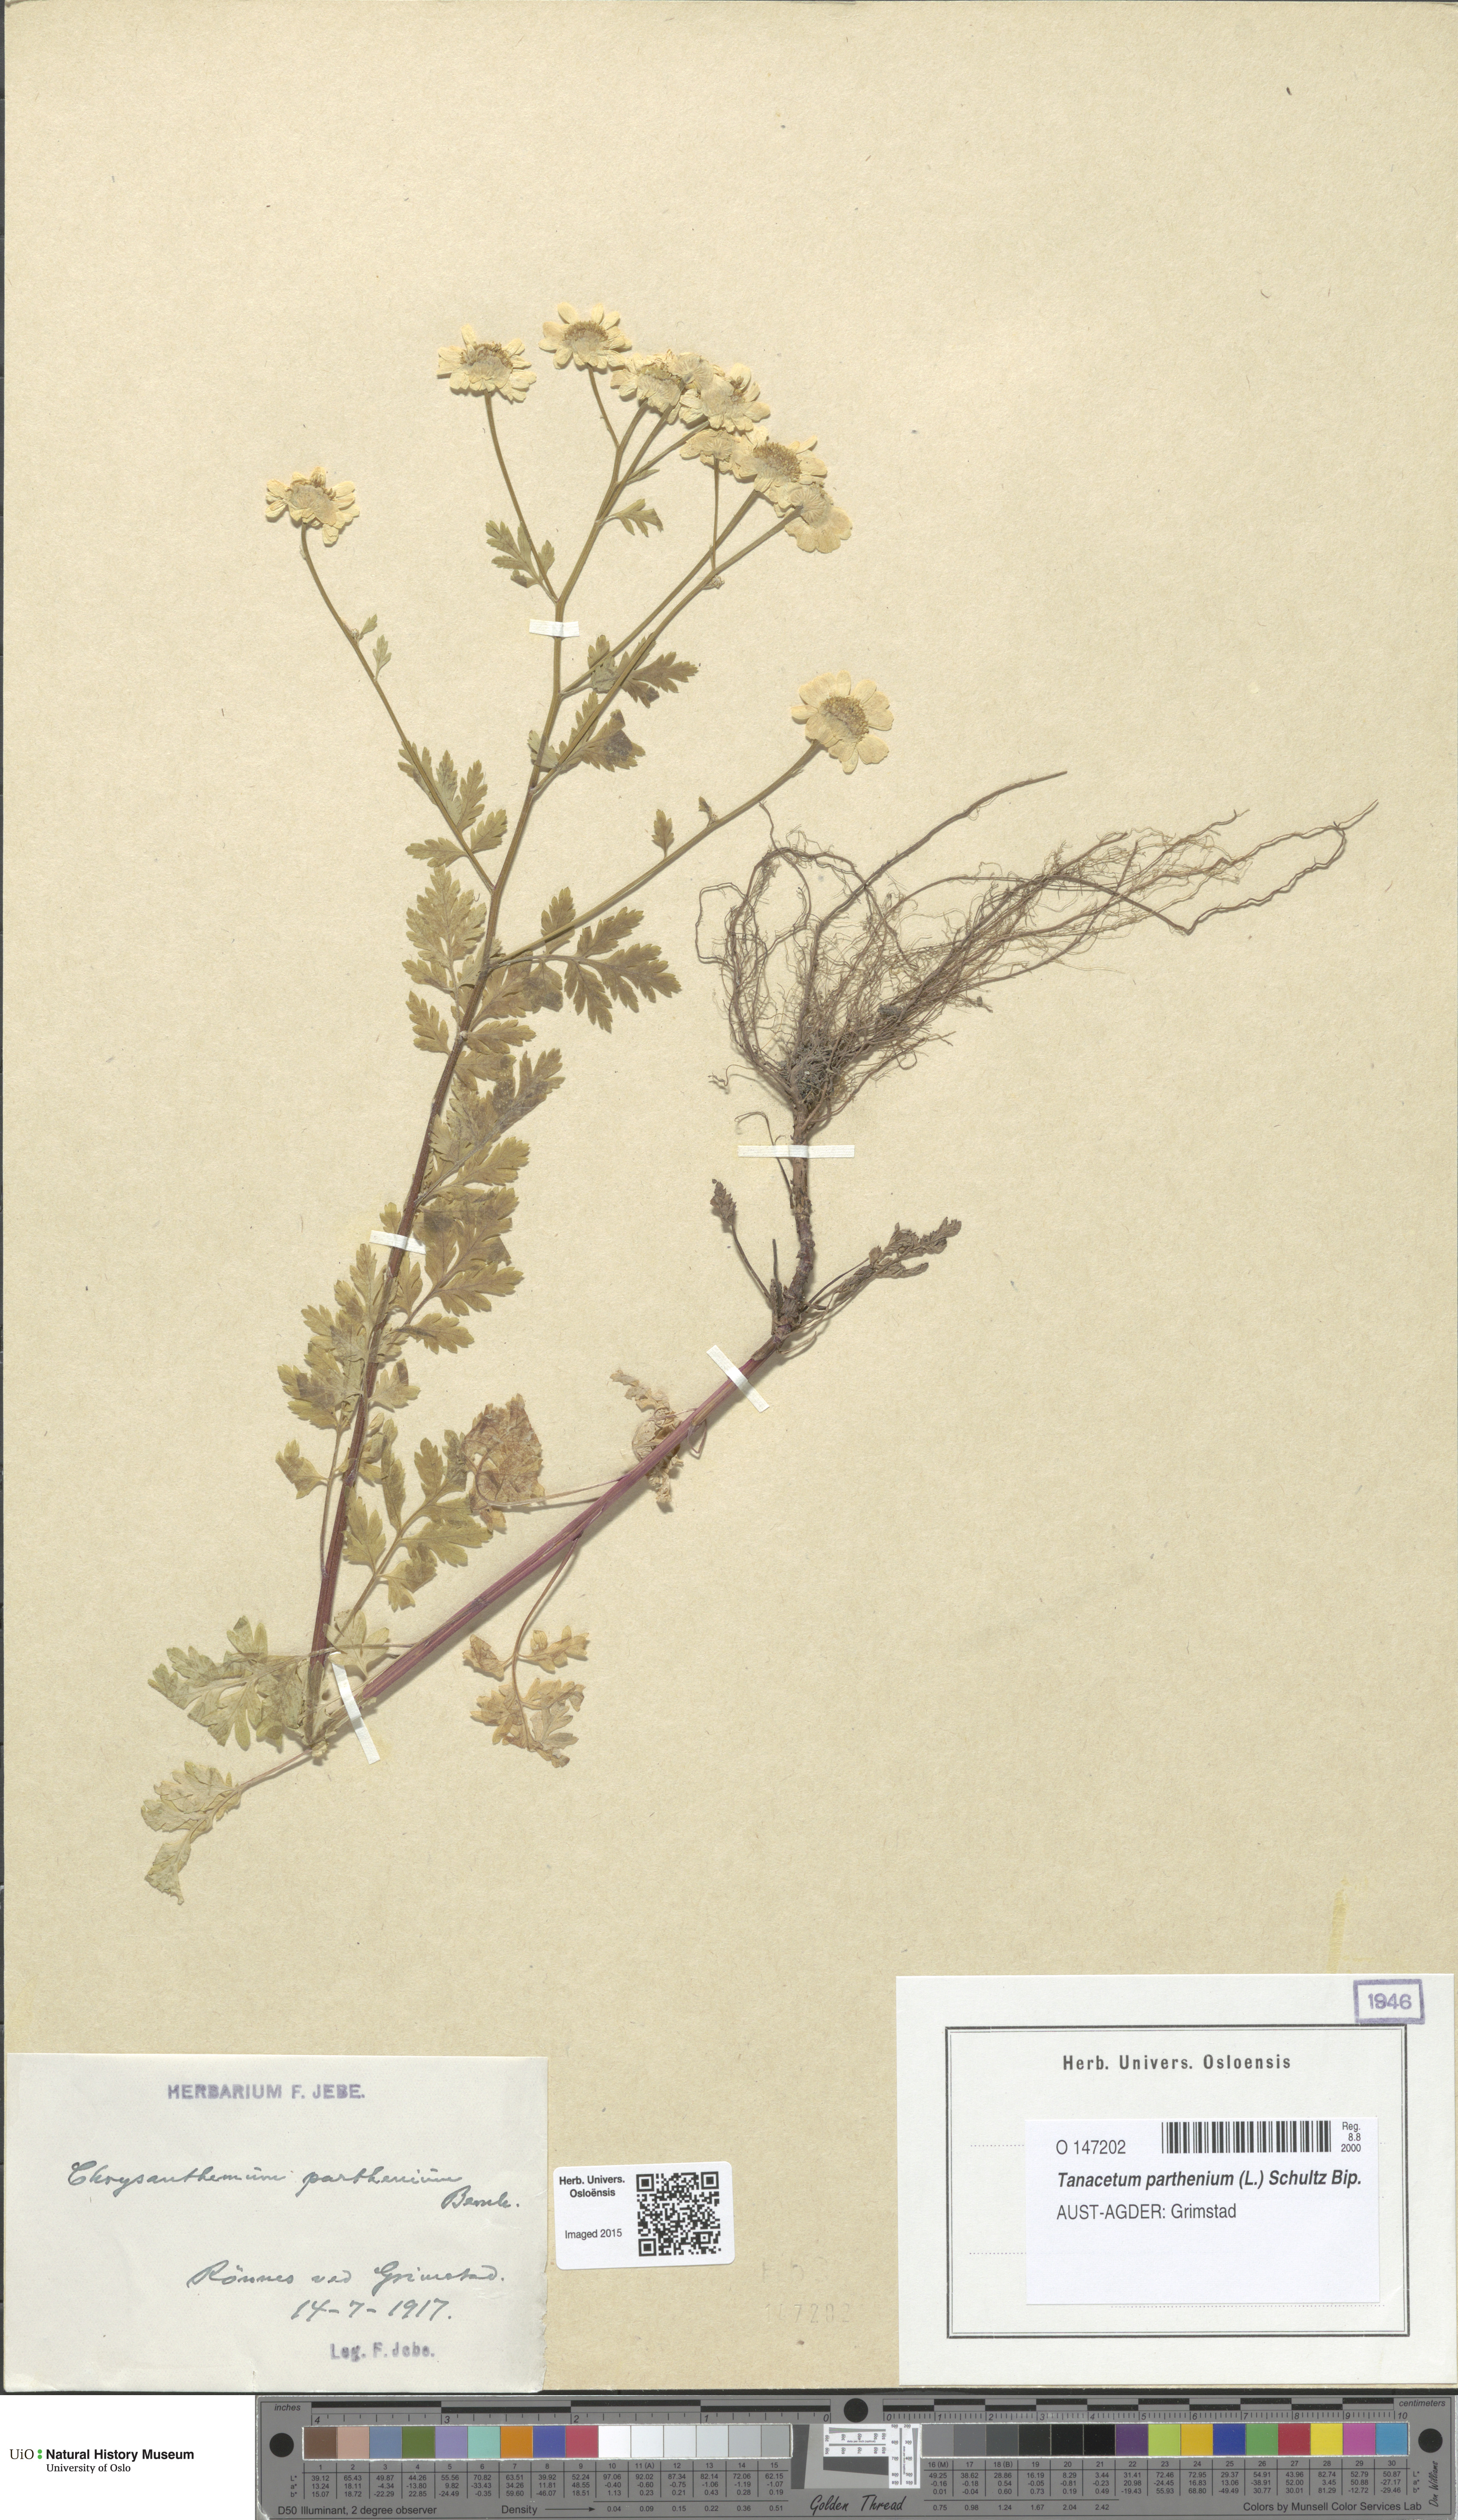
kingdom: Plantae
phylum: Tracheophyta
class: Magnoliopsida
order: Asterales
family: Asteraceae
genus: Tanacetum
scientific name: Tanacetum parthenium
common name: Feverfew
